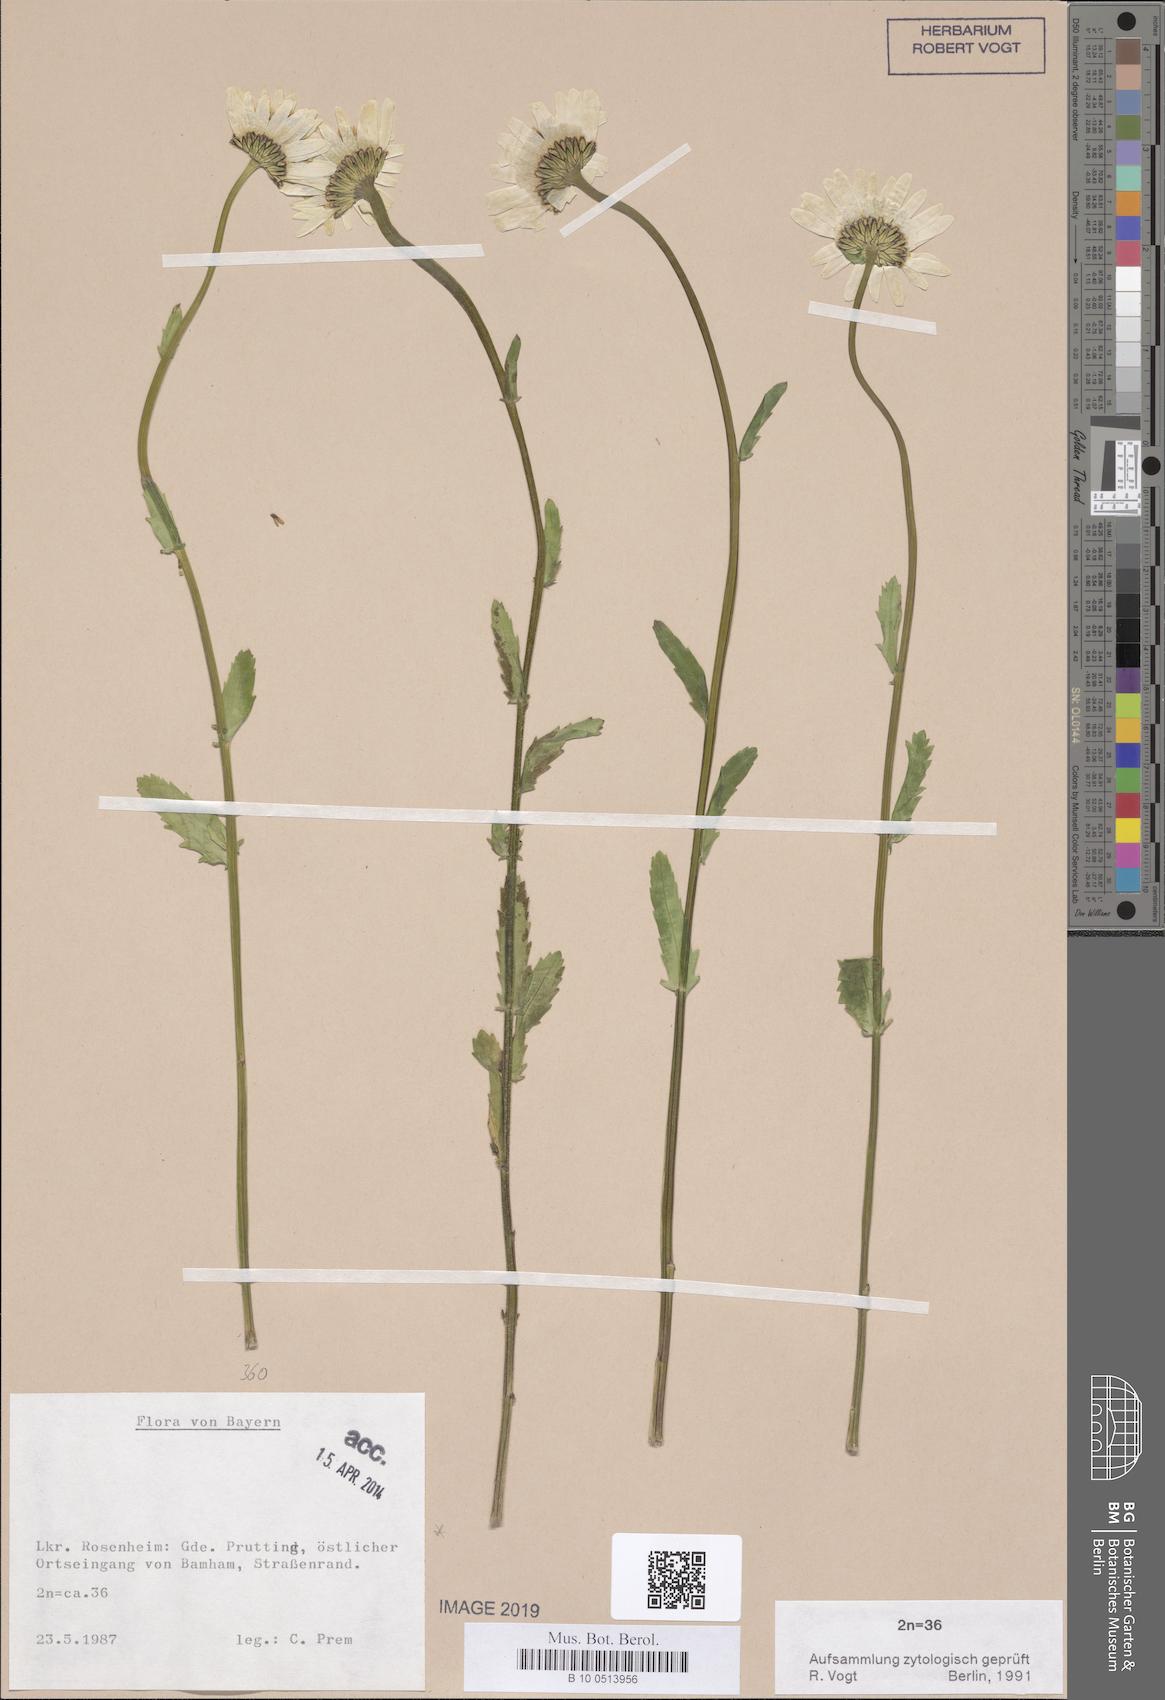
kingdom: Plantae
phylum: Tracheophyta
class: Magnoliopsida
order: Asterales
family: Asteraceae
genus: Leucanthemum
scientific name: Leucanthemum ircutianum
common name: Daisy
